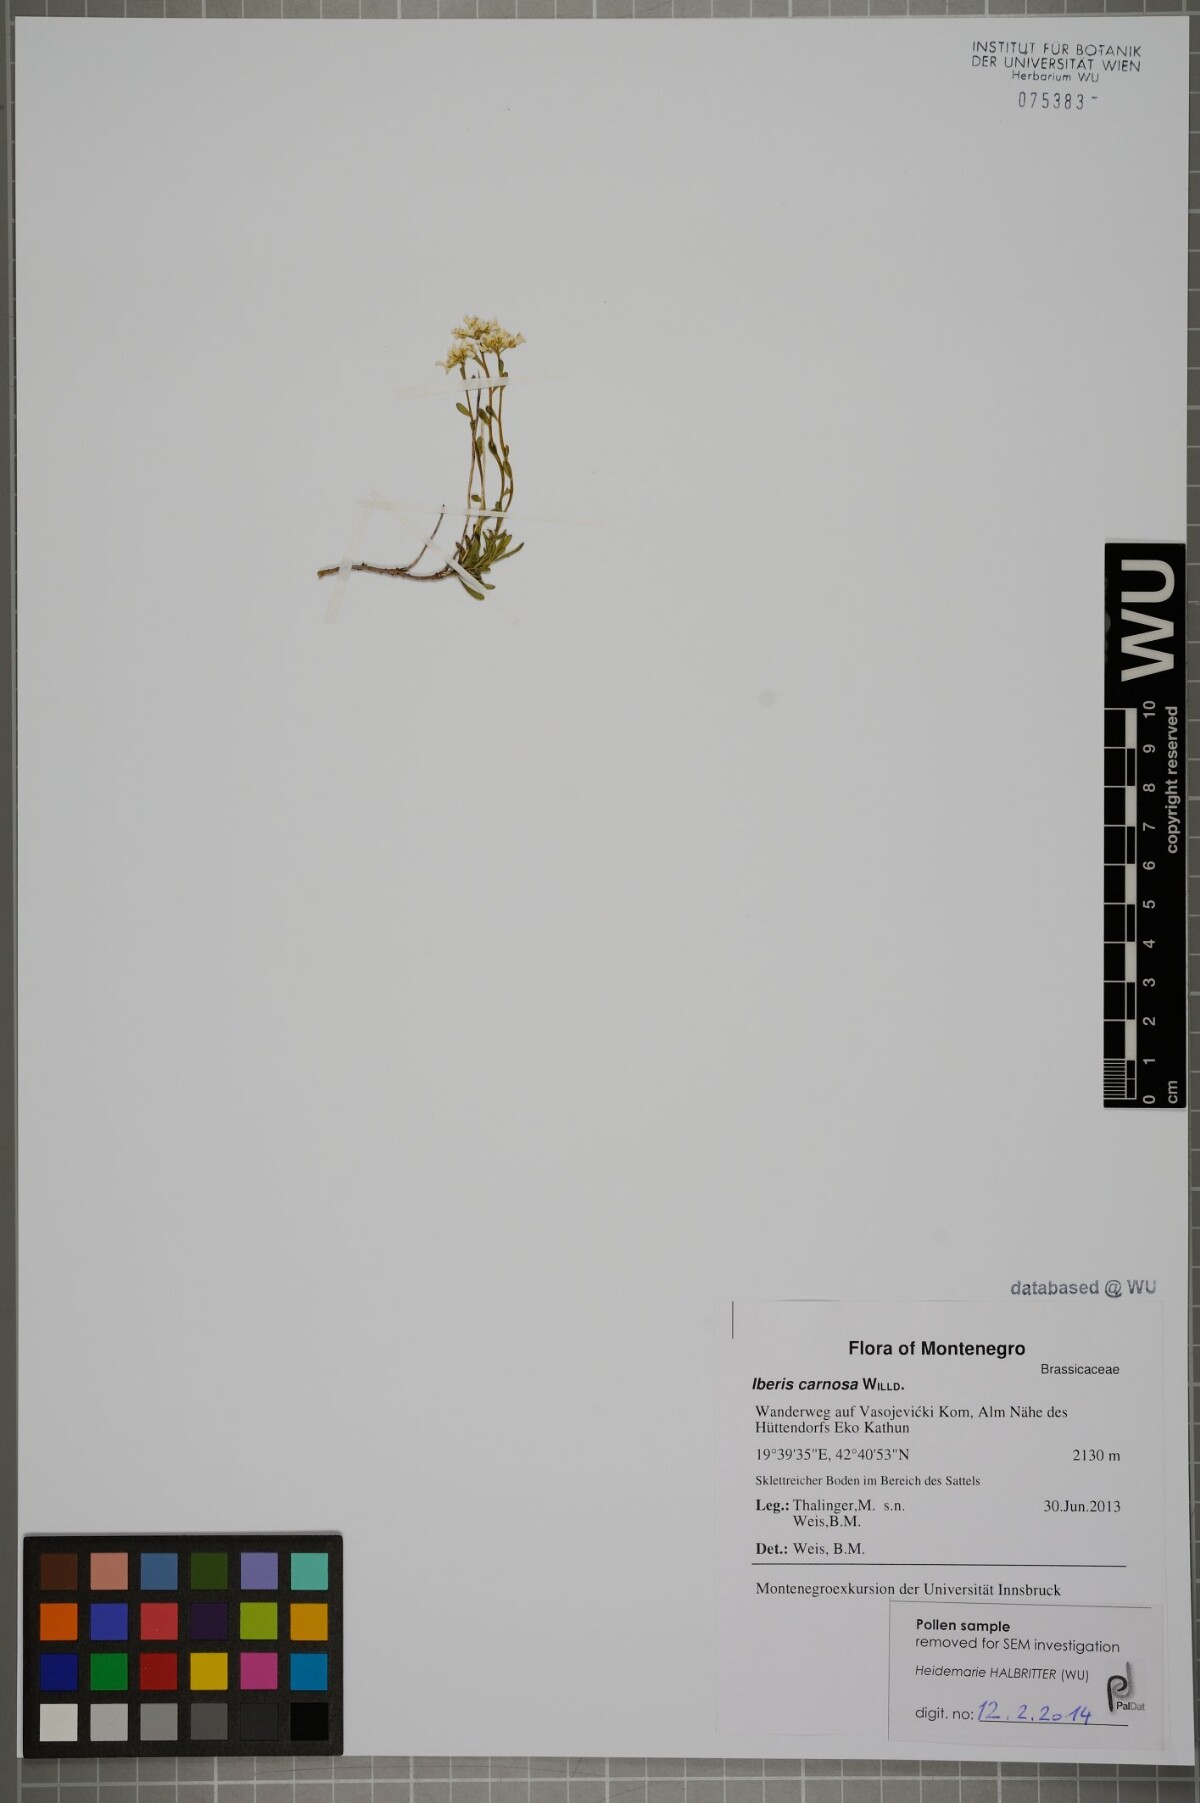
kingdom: Plantae
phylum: Tracheophyta
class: Magnoliopsida
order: Brassicales
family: Brassicaceae
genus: Iberis
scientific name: Iberis carnosa
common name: Pruit's candytuft
